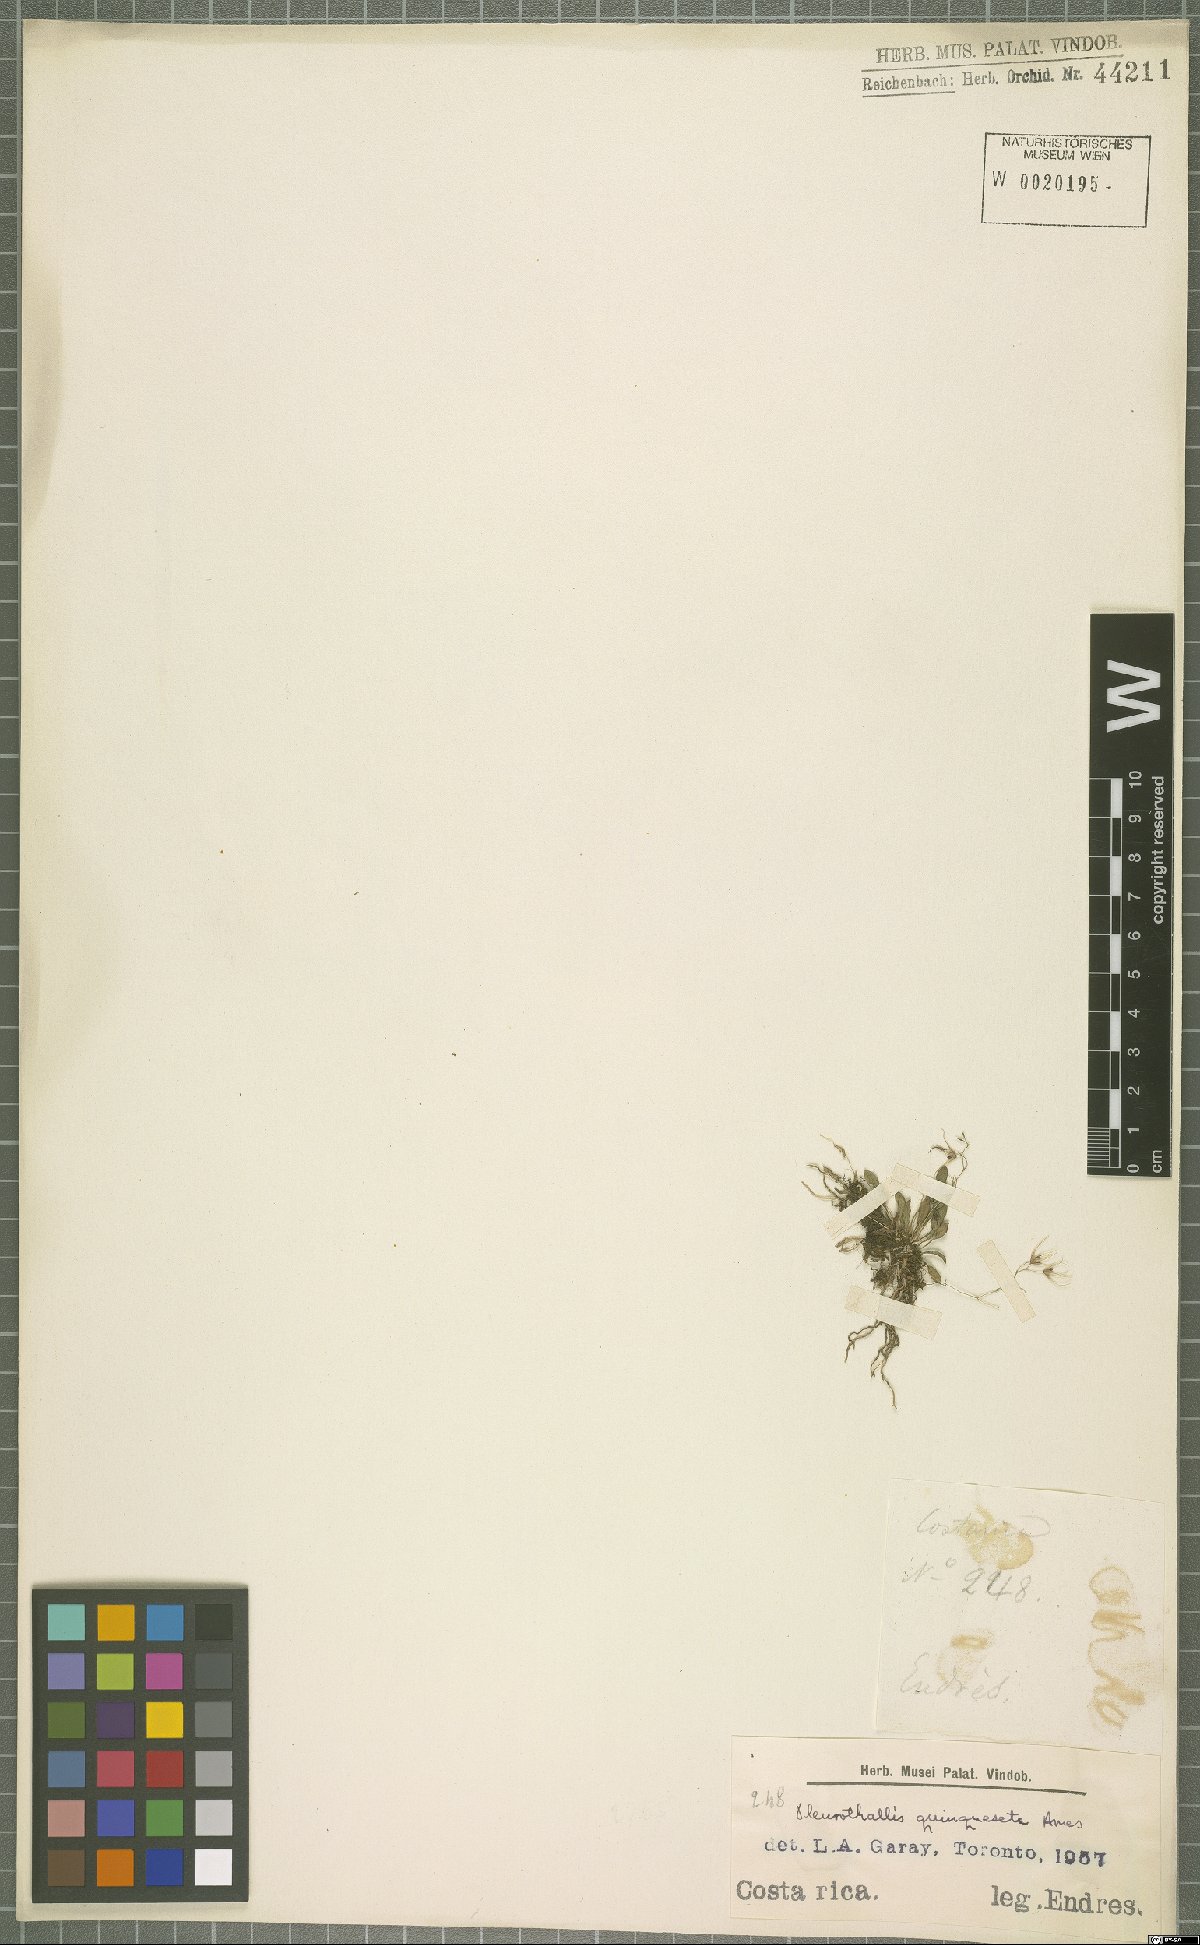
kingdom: Plantae
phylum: Tracheophyta
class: Liliopsida
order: Asparagales
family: Orchidaceae
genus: Muscarella
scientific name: Muscarella quinqueseta
